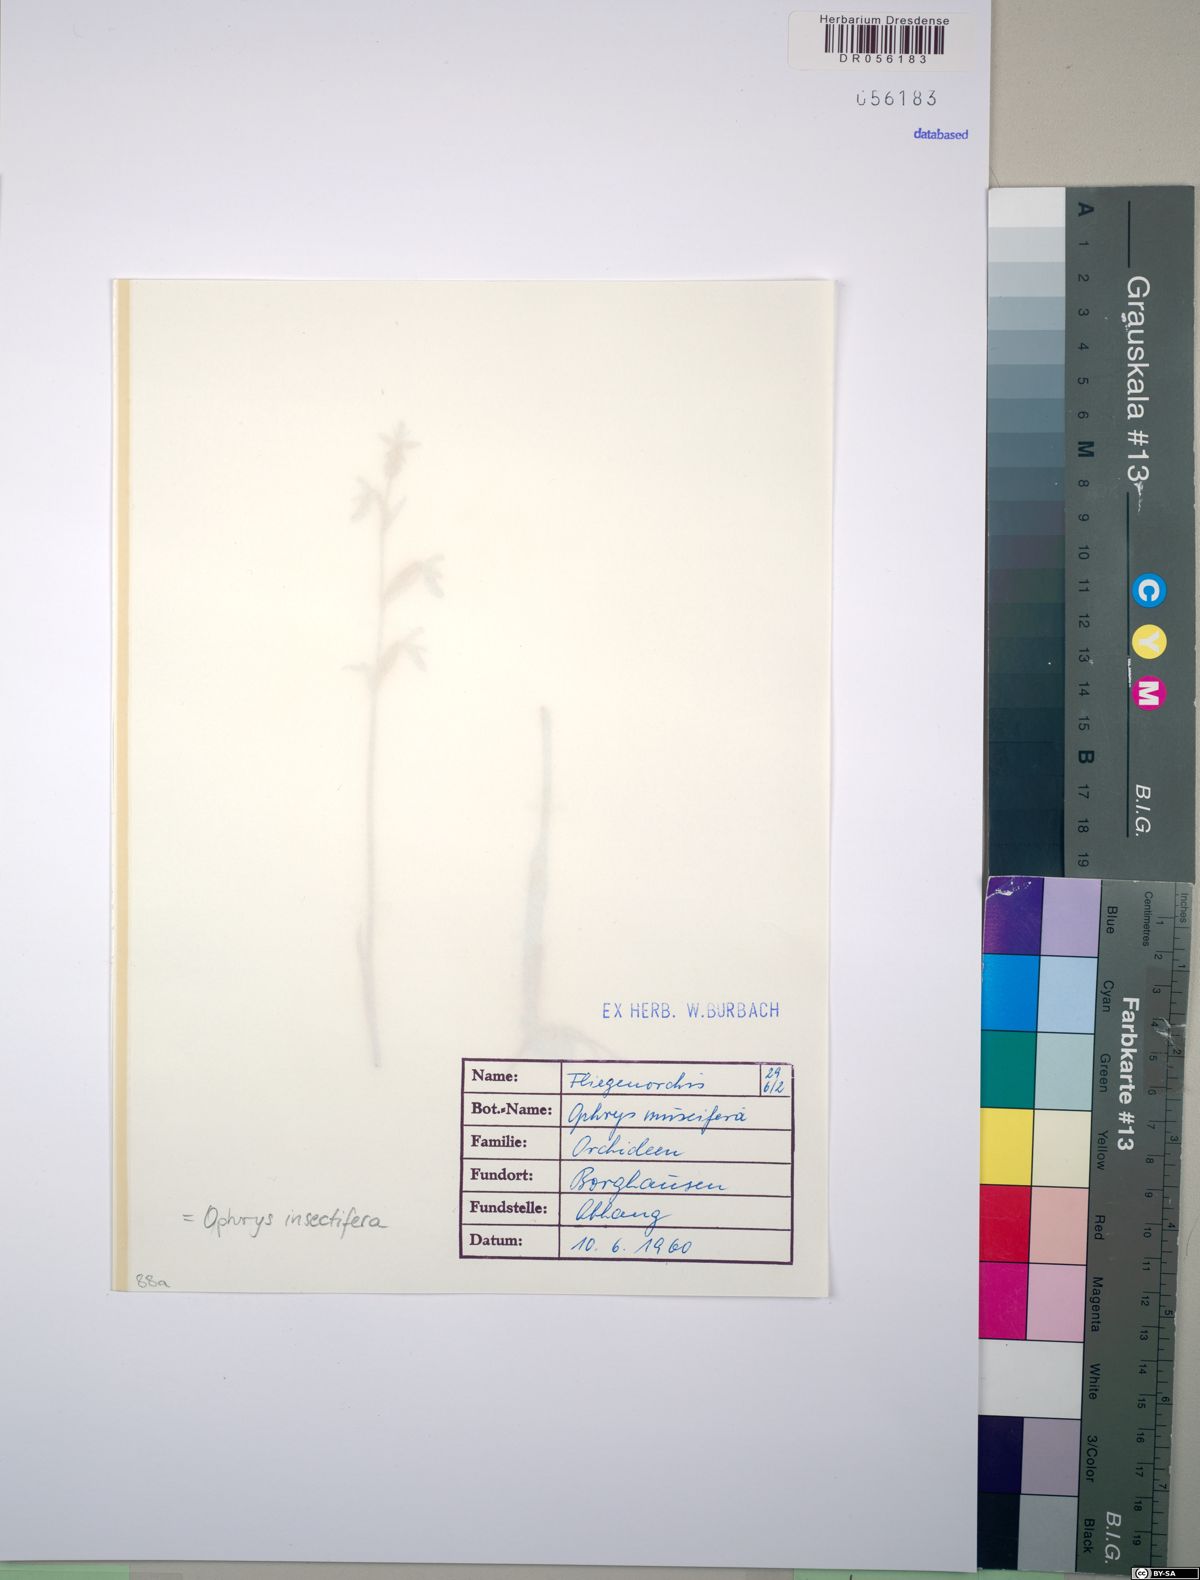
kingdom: Plantae
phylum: Tracheophyta
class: Liliopsida
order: Asparagales
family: Orchidaceae
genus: Ophrys
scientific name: Ophrys insectifera
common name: Fly orchid
